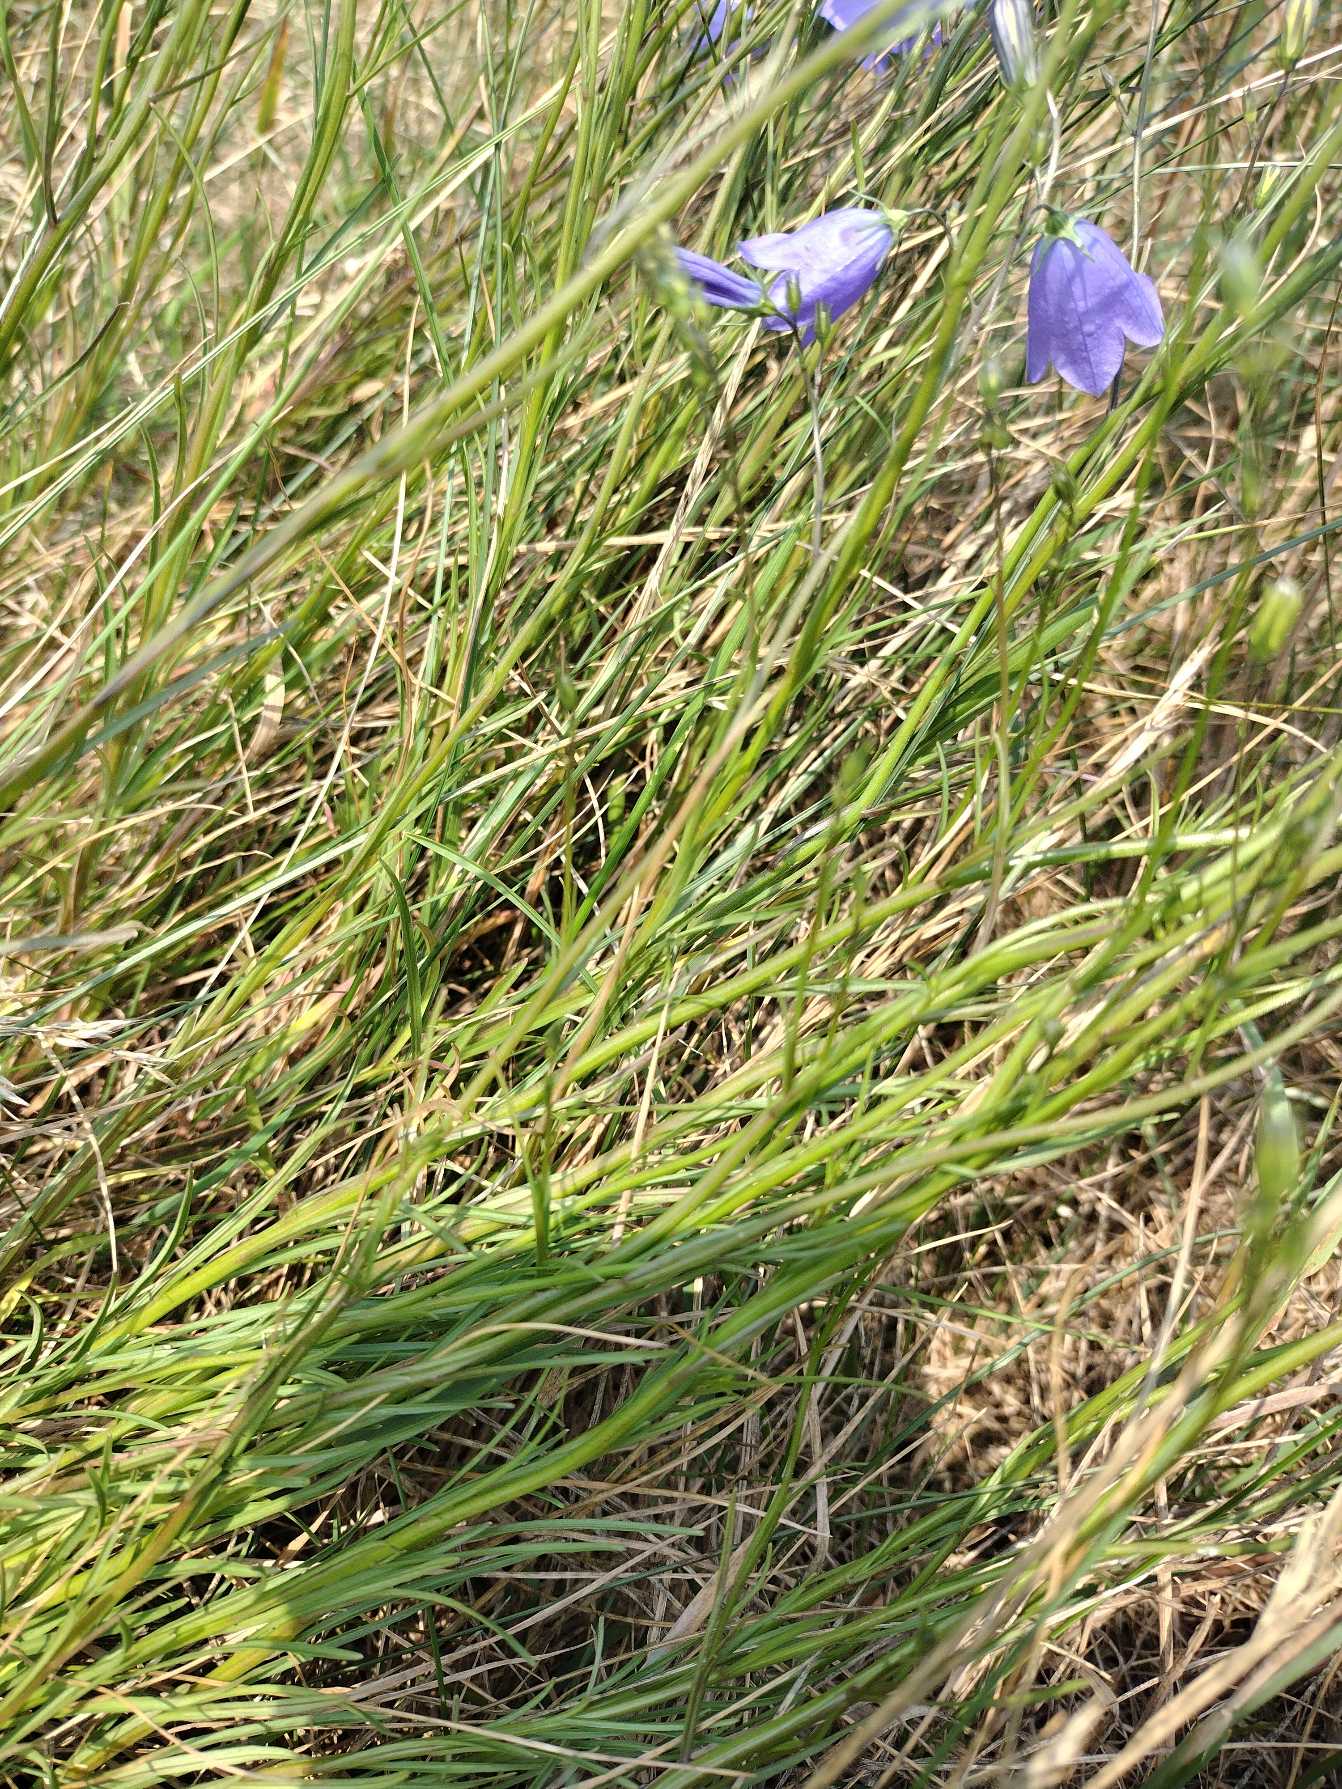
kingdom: Plantae
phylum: Tracheophyta
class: Magnoliopsida
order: Asterales
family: Campanulaceae
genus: Campanula
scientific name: Campanula rotundifolia
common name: Liden klokke
